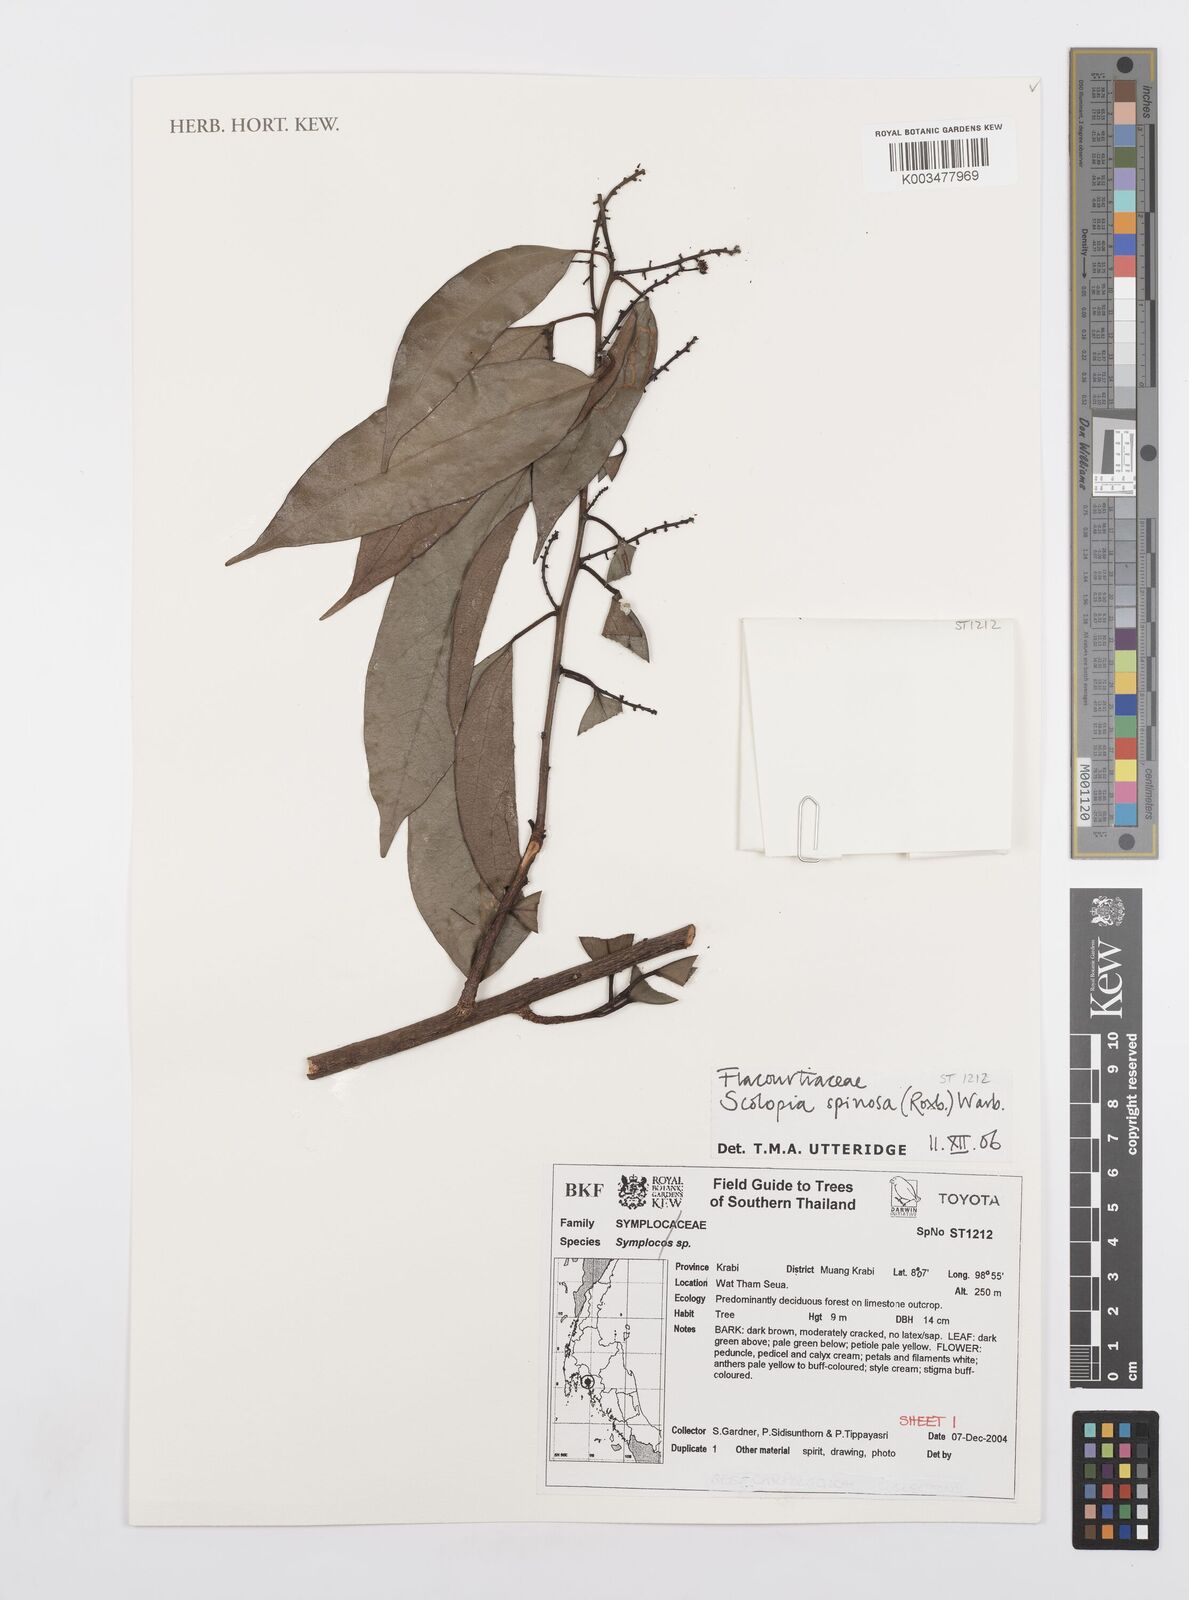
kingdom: Plantae
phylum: Tracheophyta
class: Magnoliopsida
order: Malpighiales
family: Salicaceae
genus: Scolopia
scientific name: Scolopia spinescens
